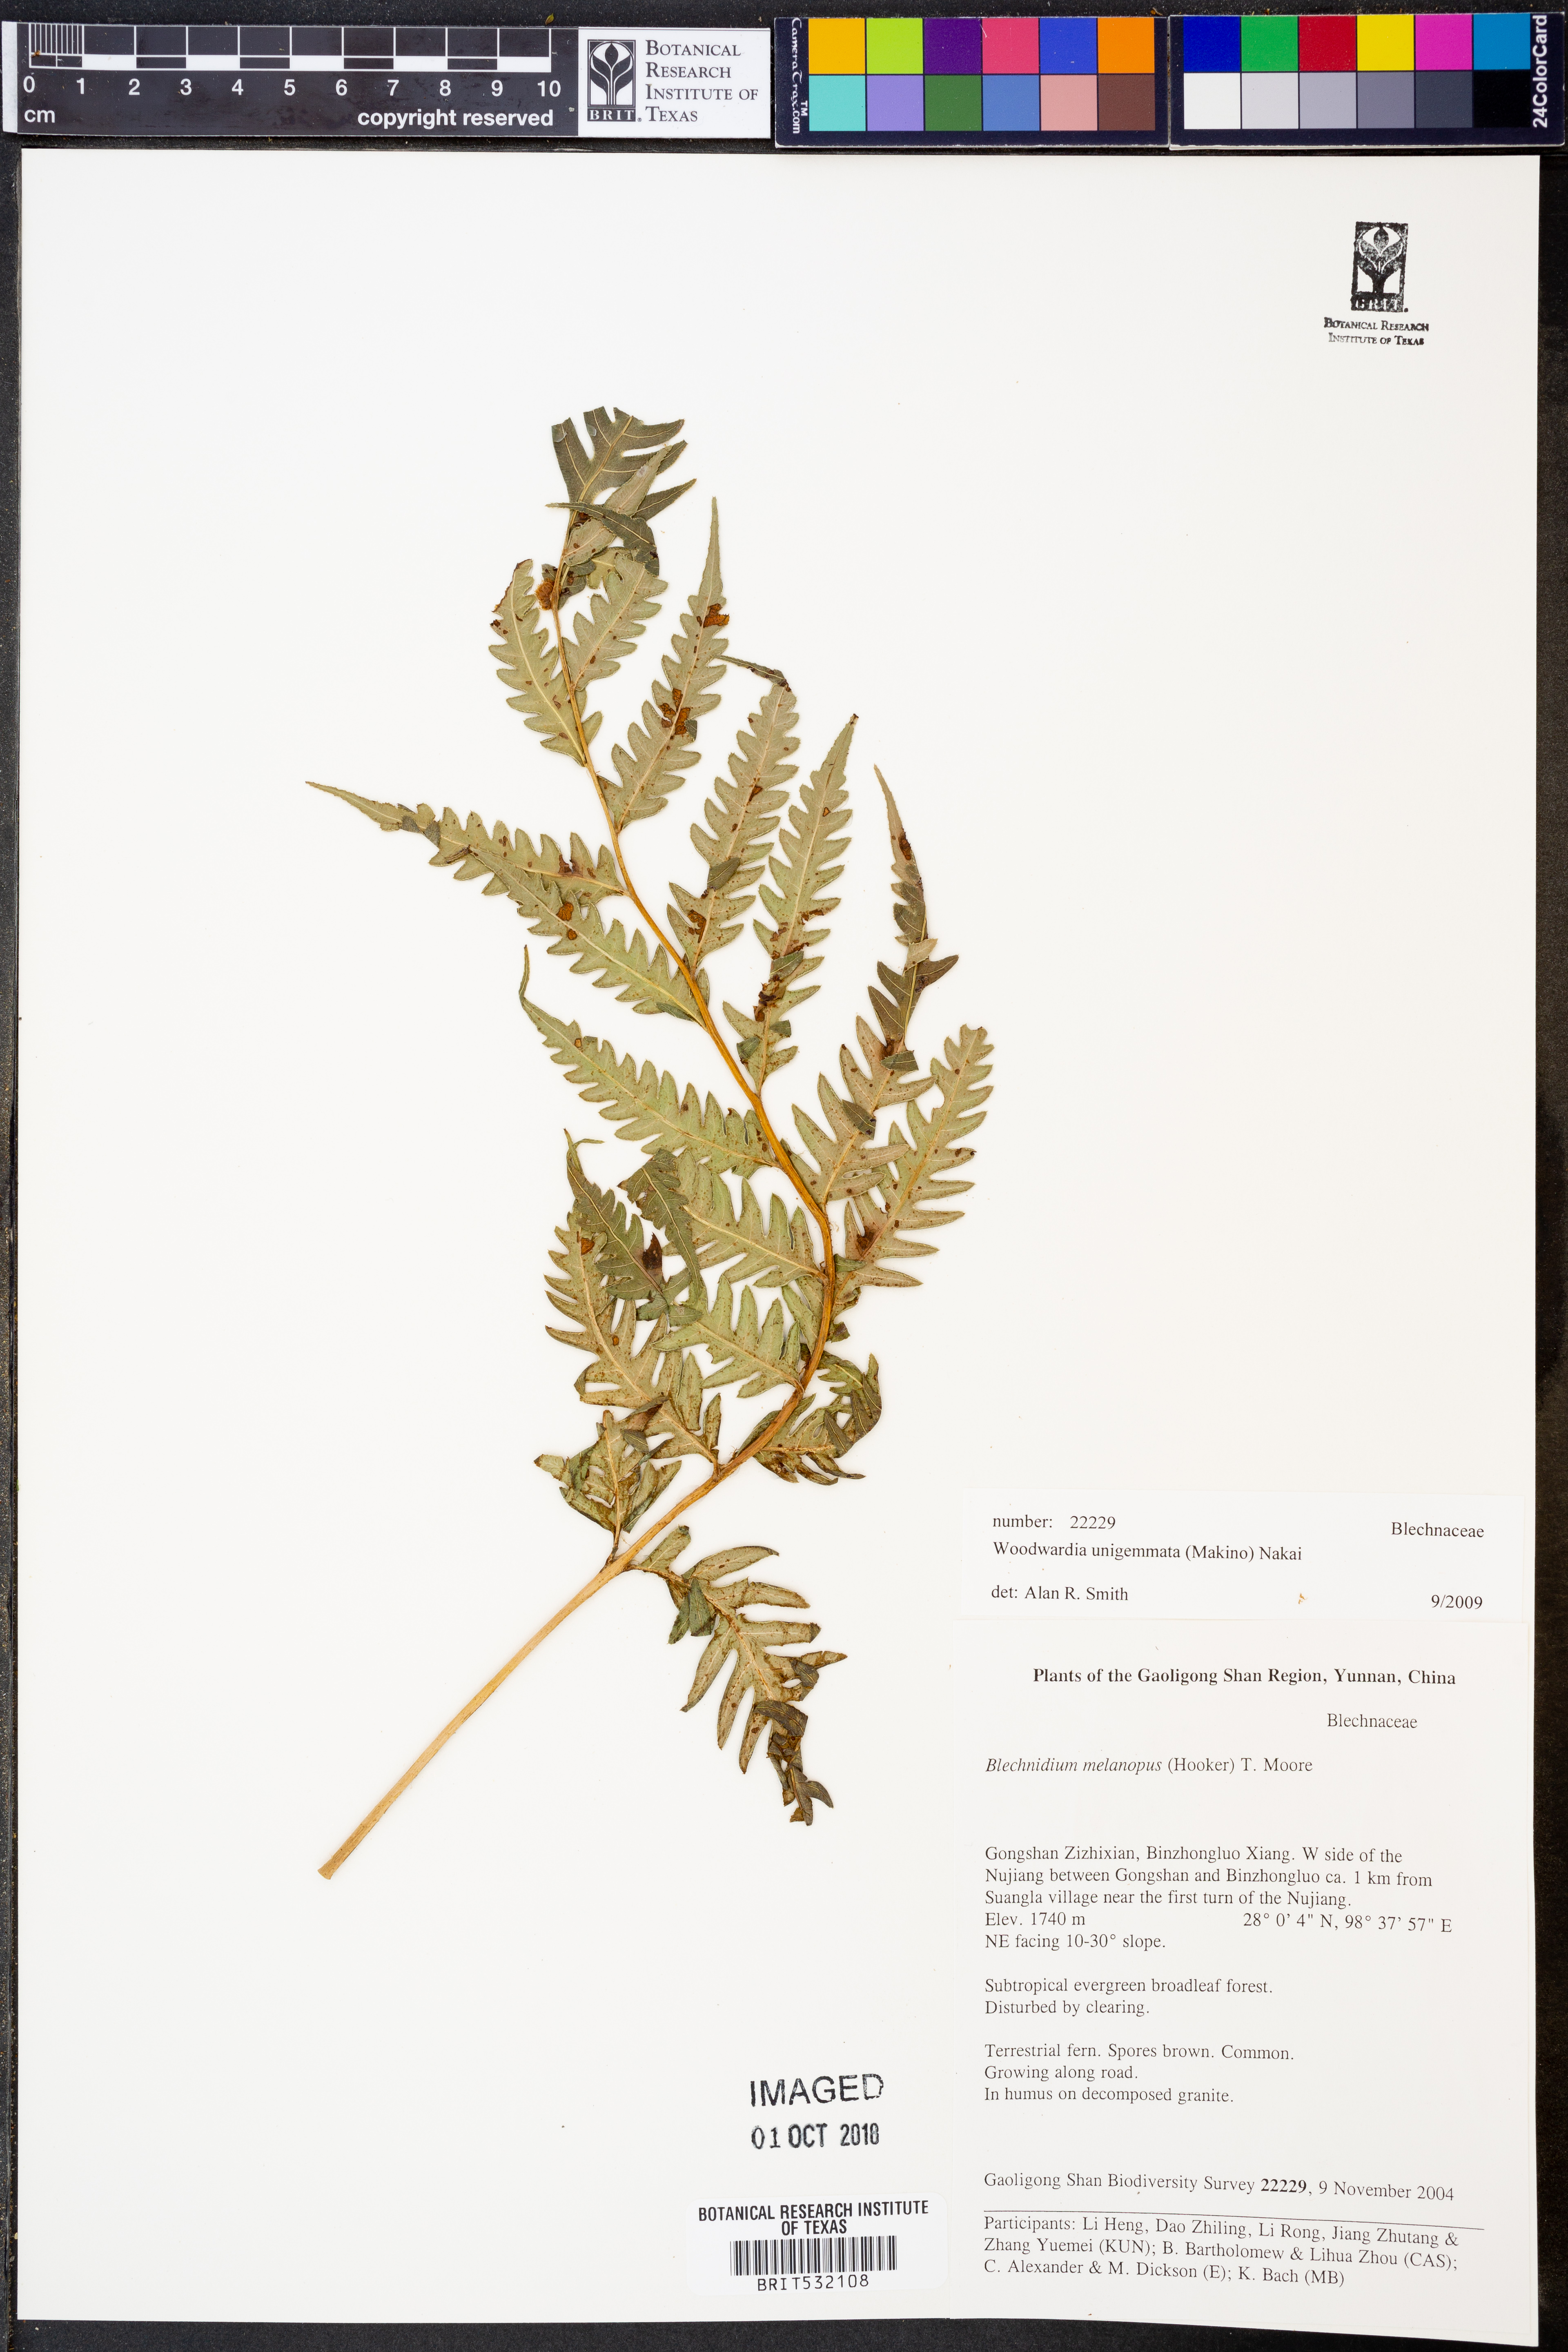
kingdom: Plantae
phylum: Tracheophyta
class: Polypodiopsida
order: Polypodiales
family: Blechnaceae
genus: Woodwardia
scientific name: Woodwardia unigemmata
